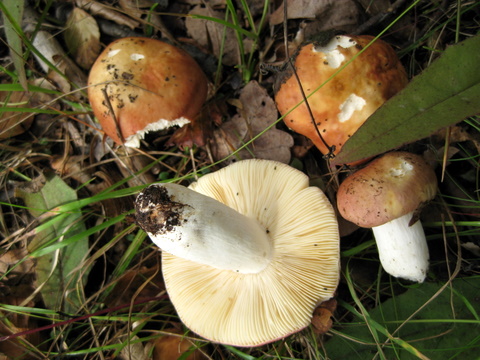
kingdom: Fungi
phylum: Basidiomycota
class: Agaricomycetes
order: Russulales
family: Russulaceae
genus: Russula
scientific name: Russula velenovskyi
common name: orangerød skørhat
